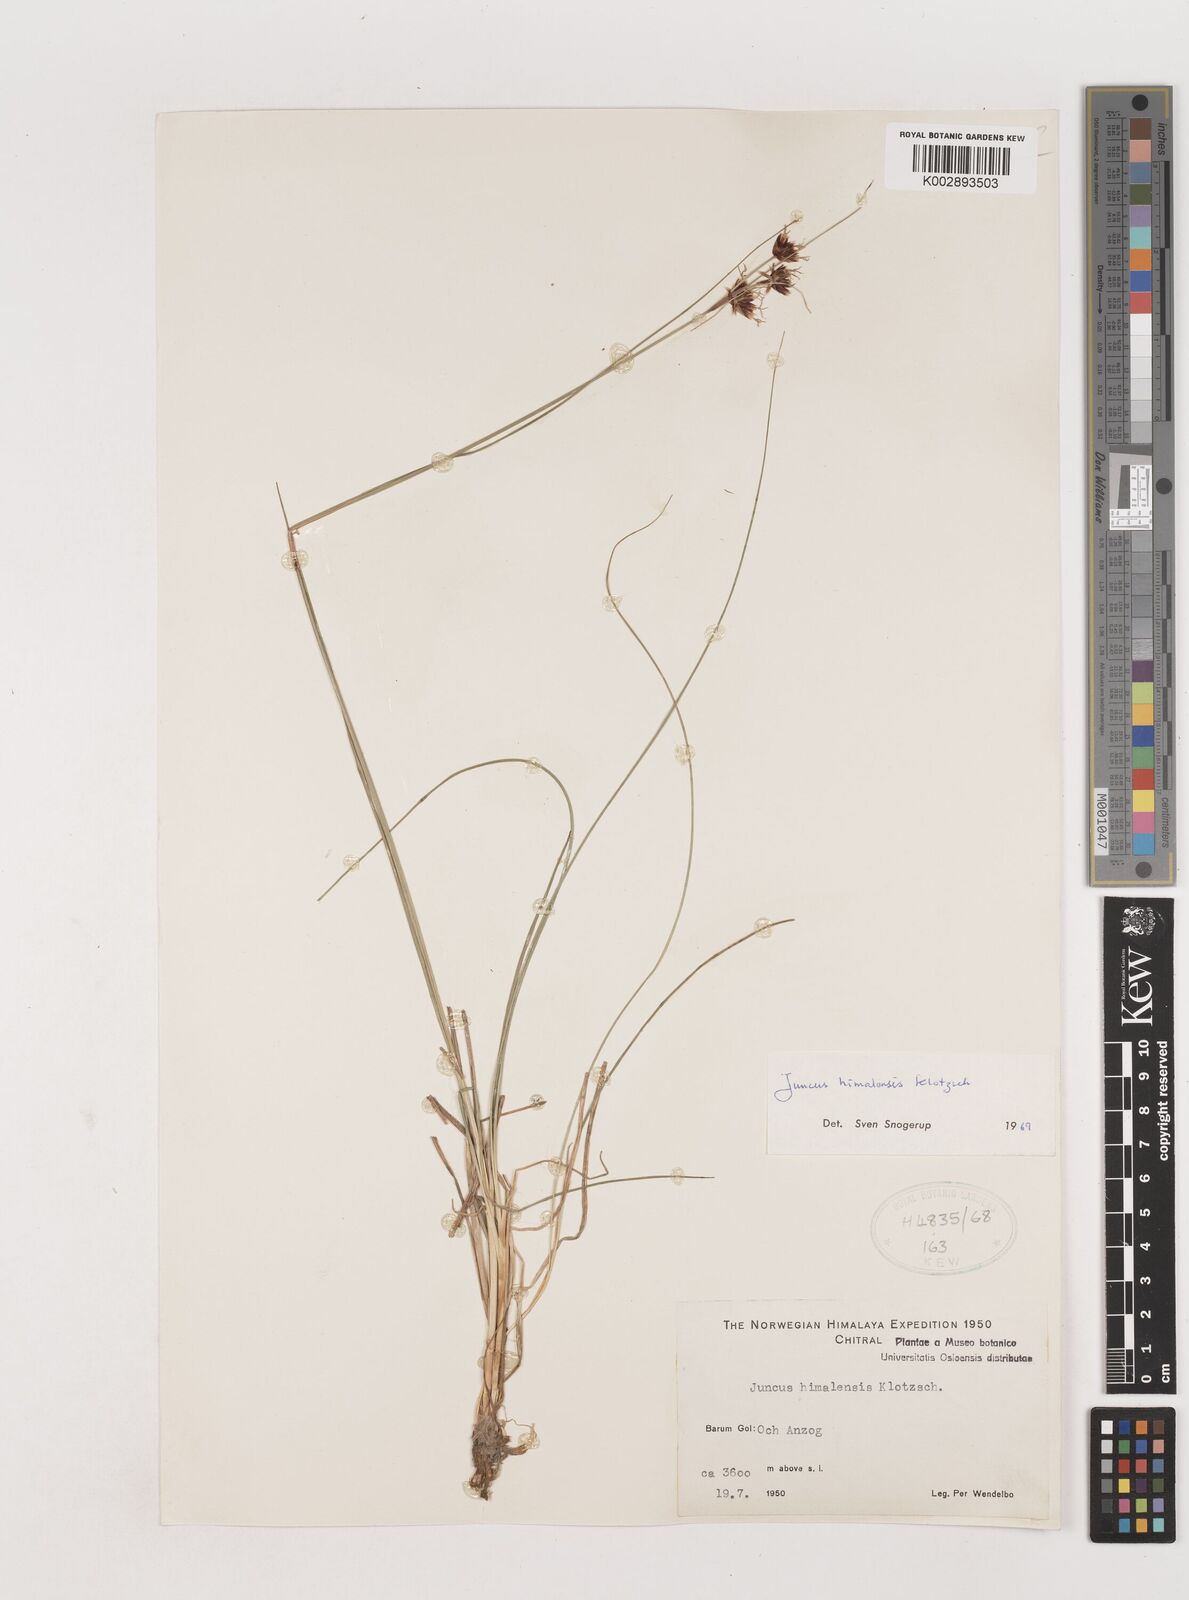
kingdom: Plantae
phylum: Tracheophyta
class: Liliopsida
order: Poales
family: Juncaceae
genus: Juncus
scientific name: Juncus himalensis
